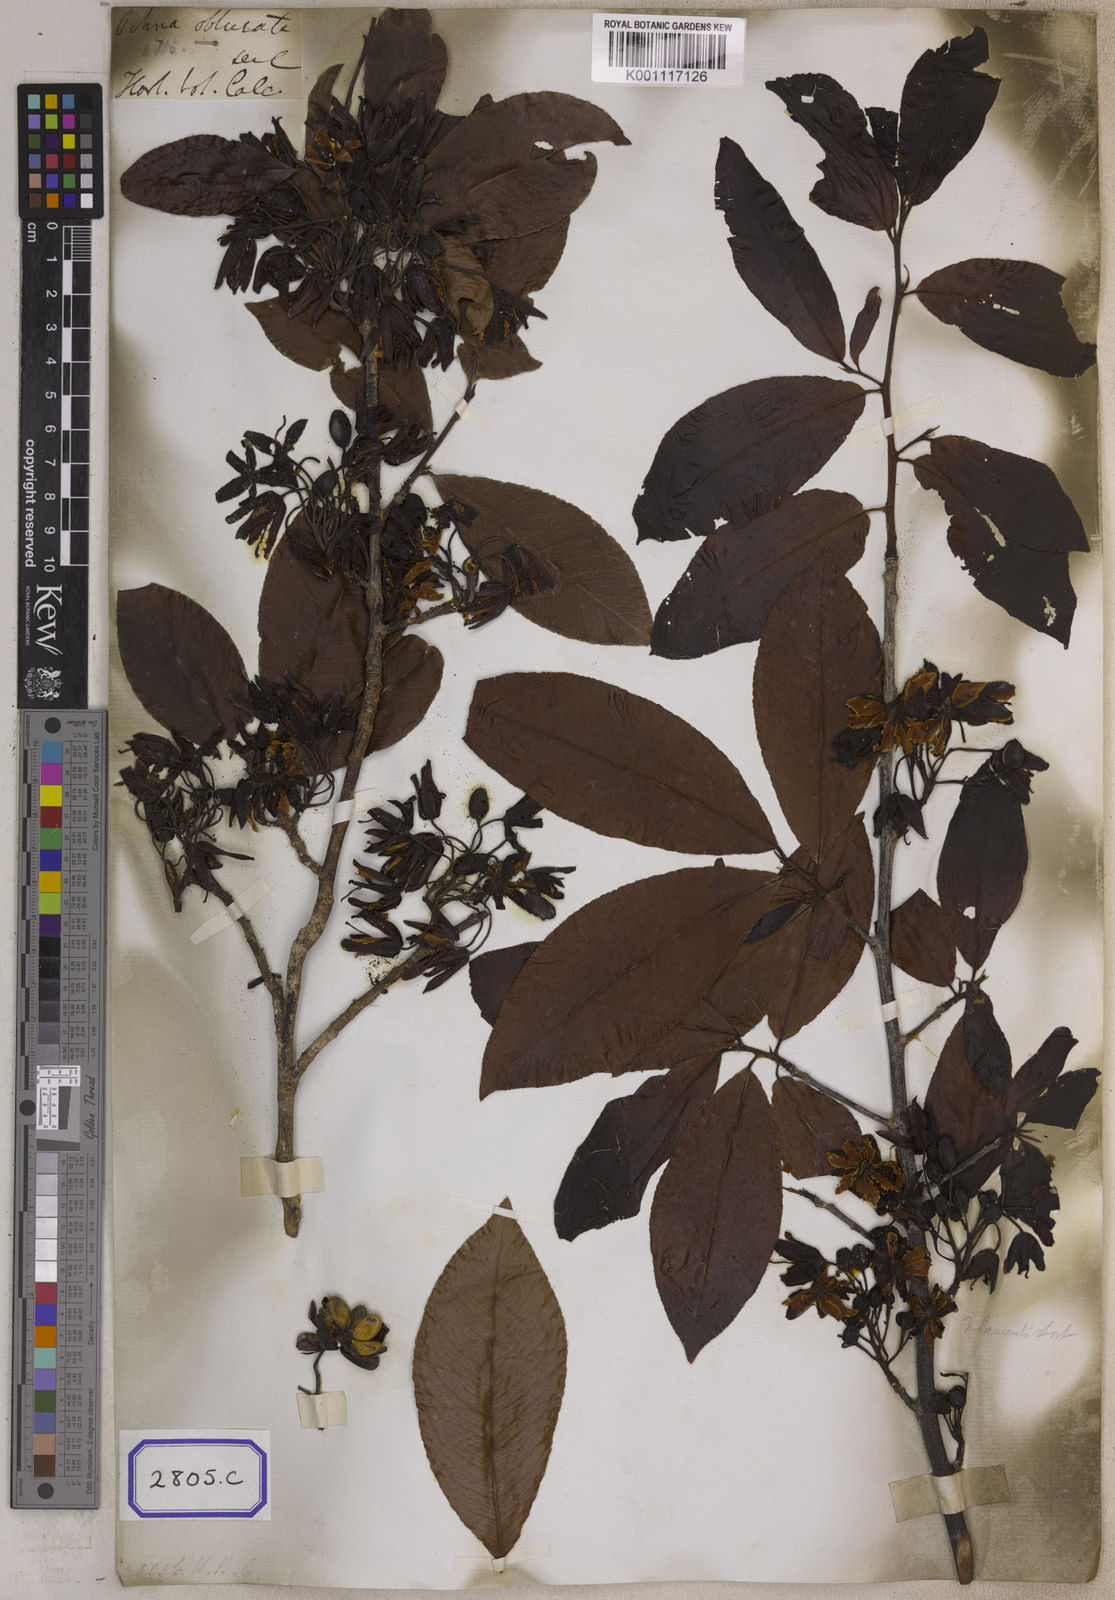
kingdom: Plantae
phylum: Tracheophyta
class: Magnoliopsida
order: Malpighiales
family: Ochnaceae
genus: Ochna
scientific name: Ochna obtusata
